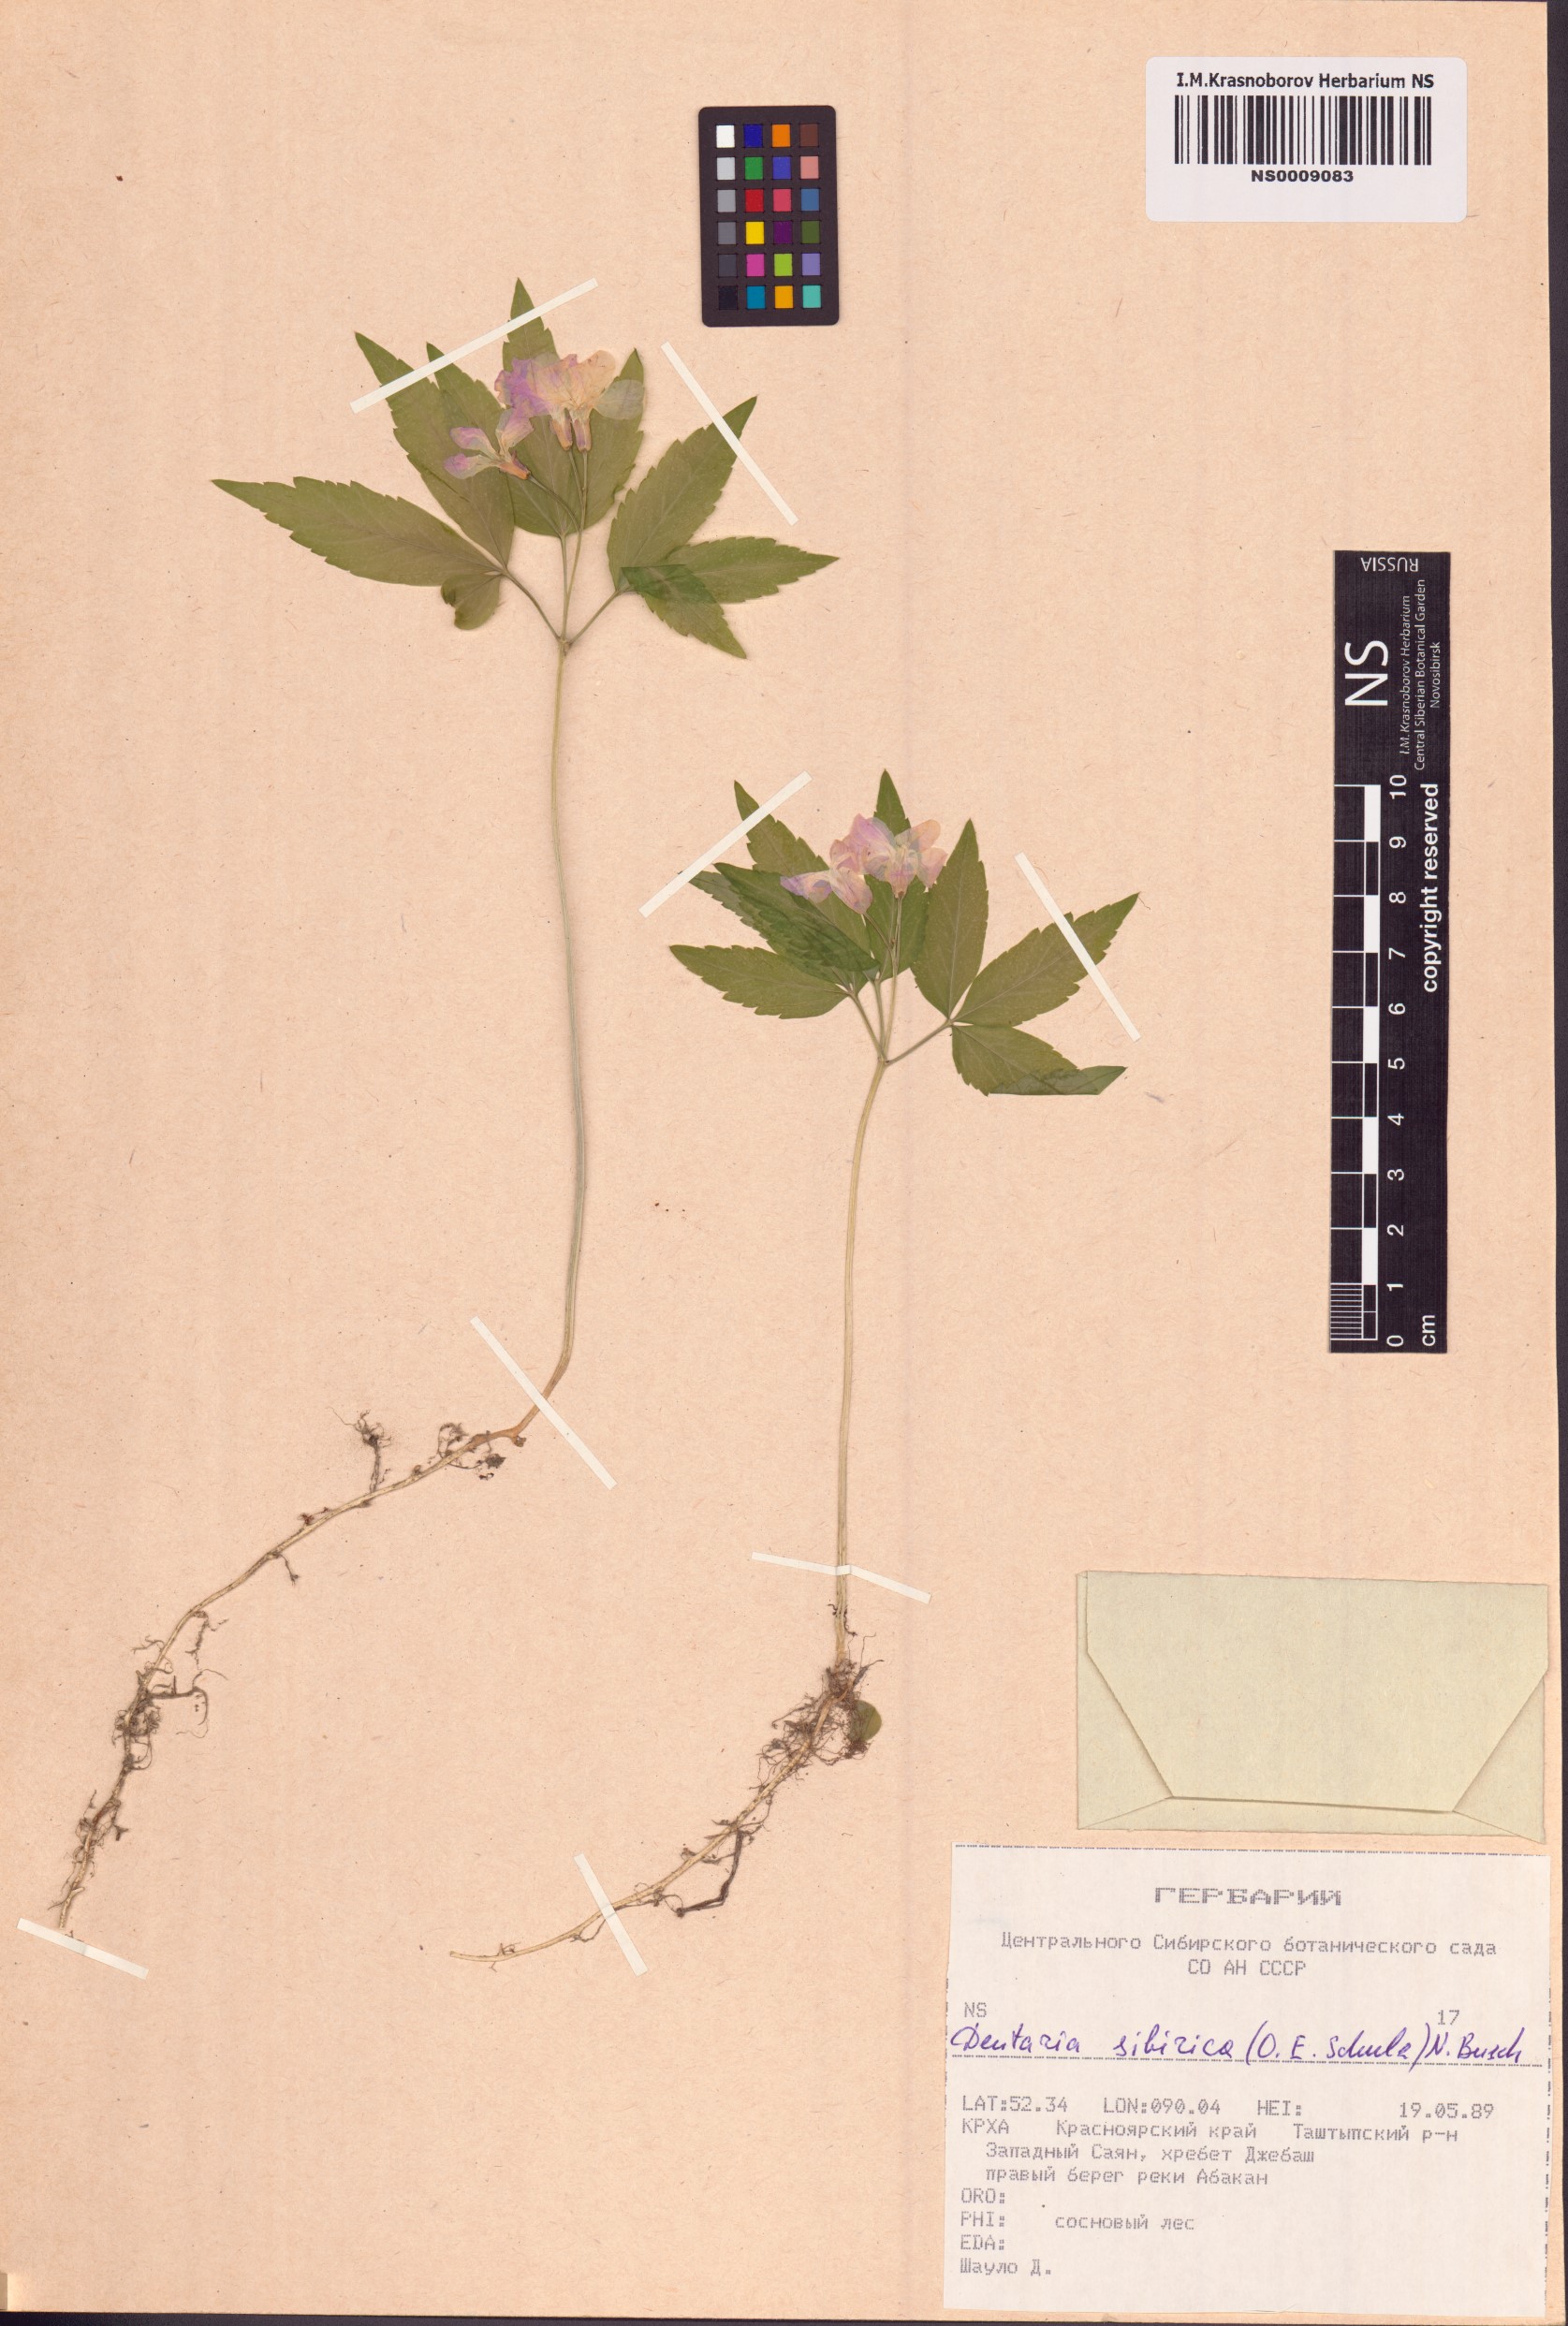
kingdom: Plantae
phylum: Tracheophyta
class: Magnoliopsida
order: Brassicales
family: Brassicaceae
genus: Cardamine
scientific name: Cardamine glanduligera
